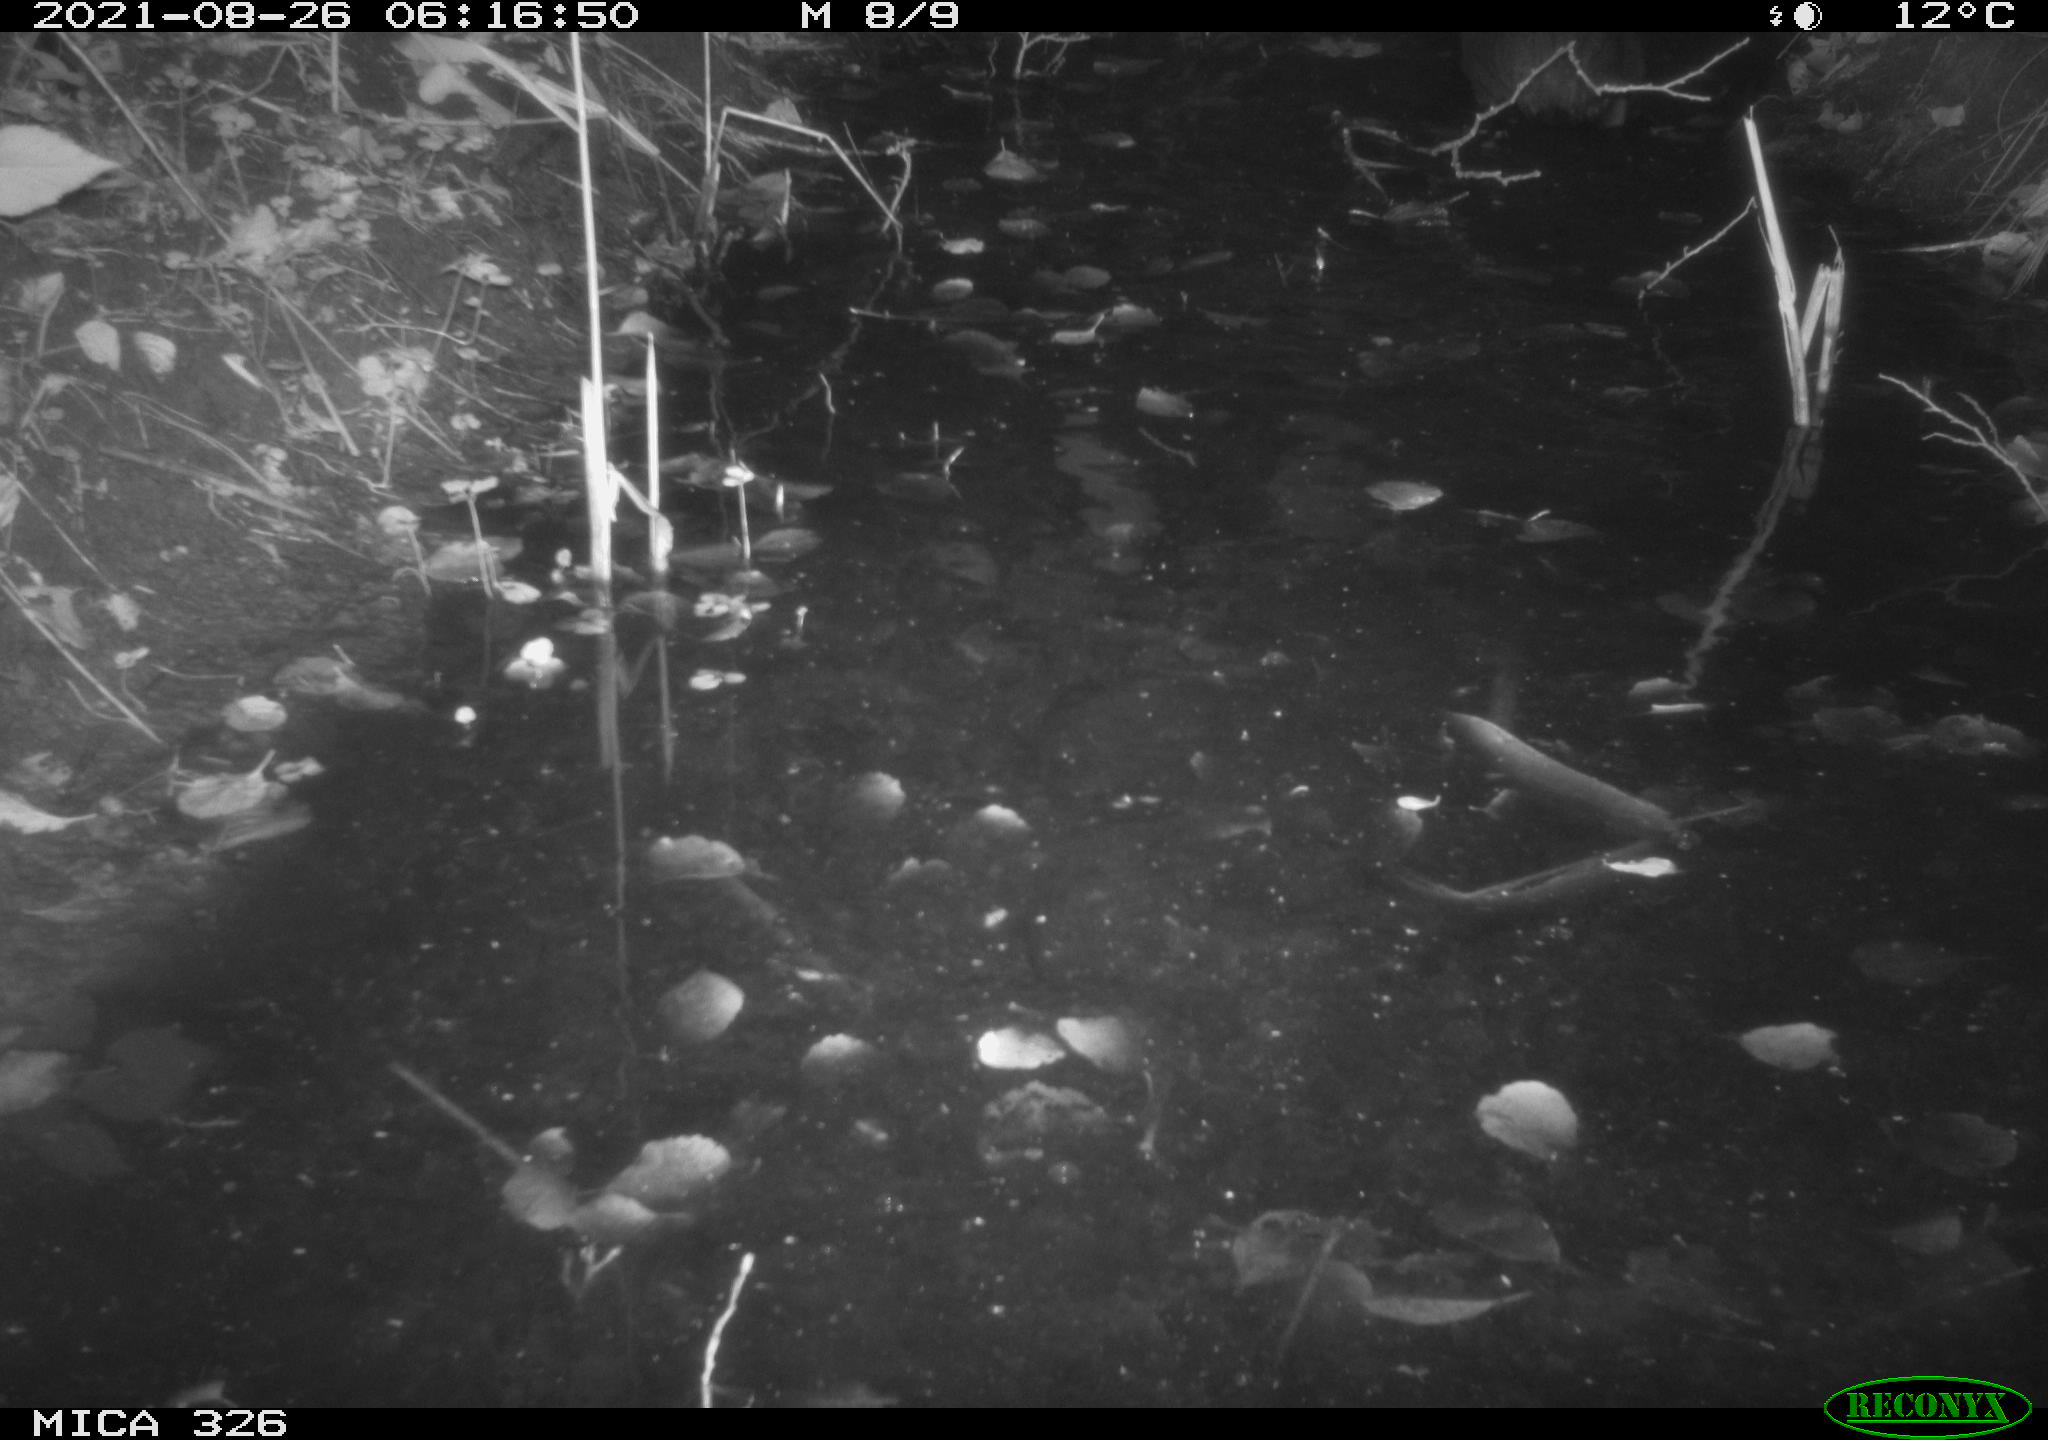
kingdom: Animalia
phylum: Chordata
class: Mammalia
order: Rodentia
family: Myocastoridae
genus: Myocastor
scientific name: Myocastor coypus
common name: Coypu
